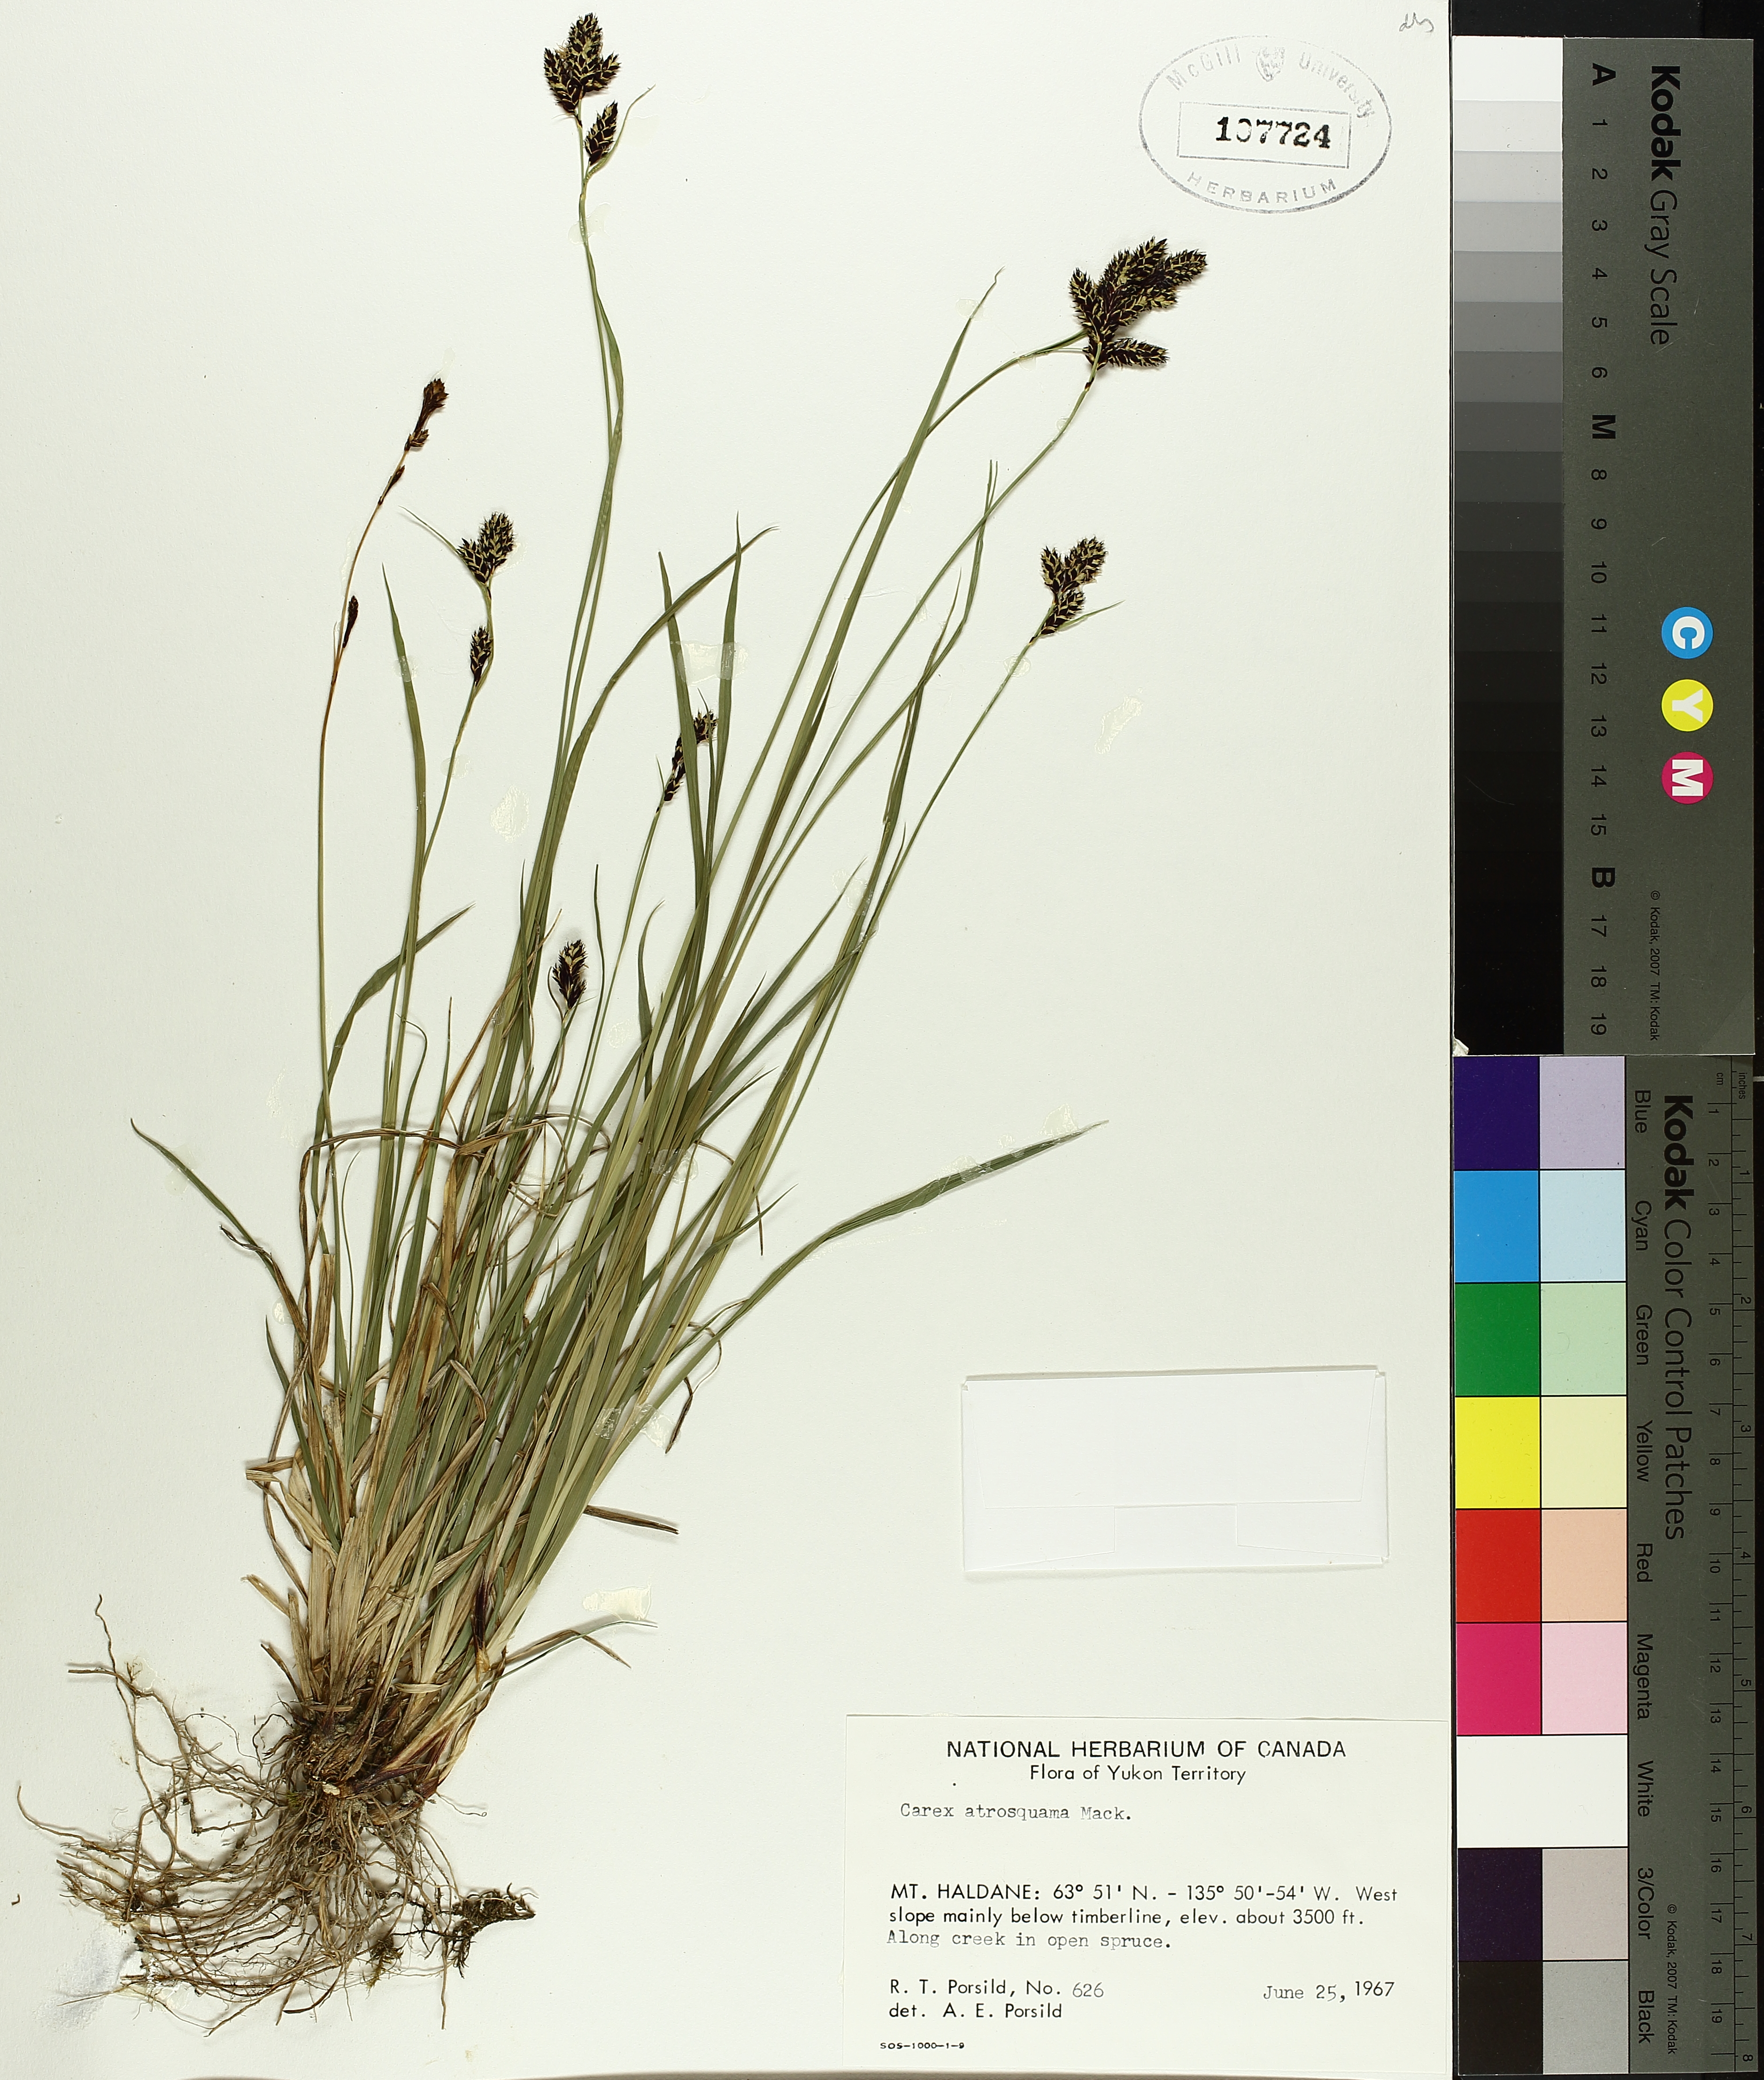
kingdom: Plantae
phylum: Tracheophyta
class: Liliopsida
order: Poales
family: Cyperaceae
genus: Carex
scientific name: Carex atrosquama
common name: Black-scale sedge
